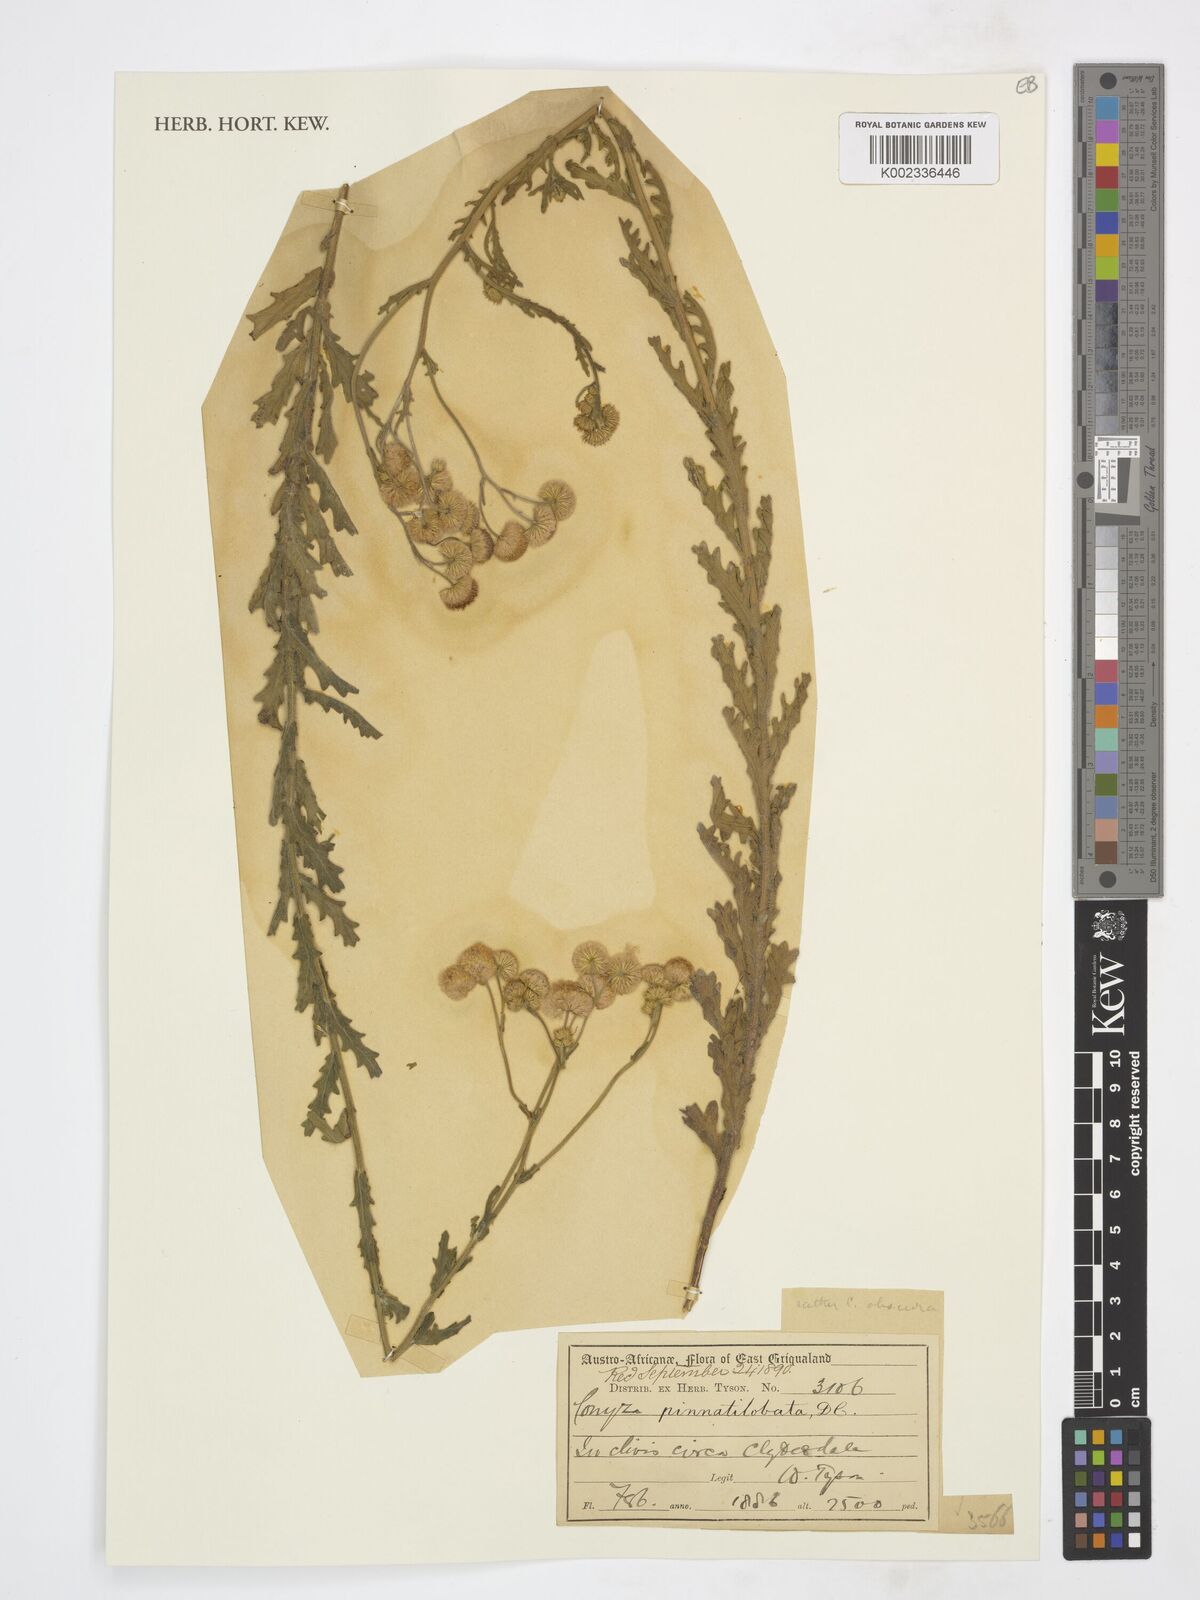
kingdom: Plantae
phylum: Tracheophyta
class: Magnoliopsida
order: Asterales
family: Asteraceae
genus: Nidorella
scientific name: Nidorella pinnata
